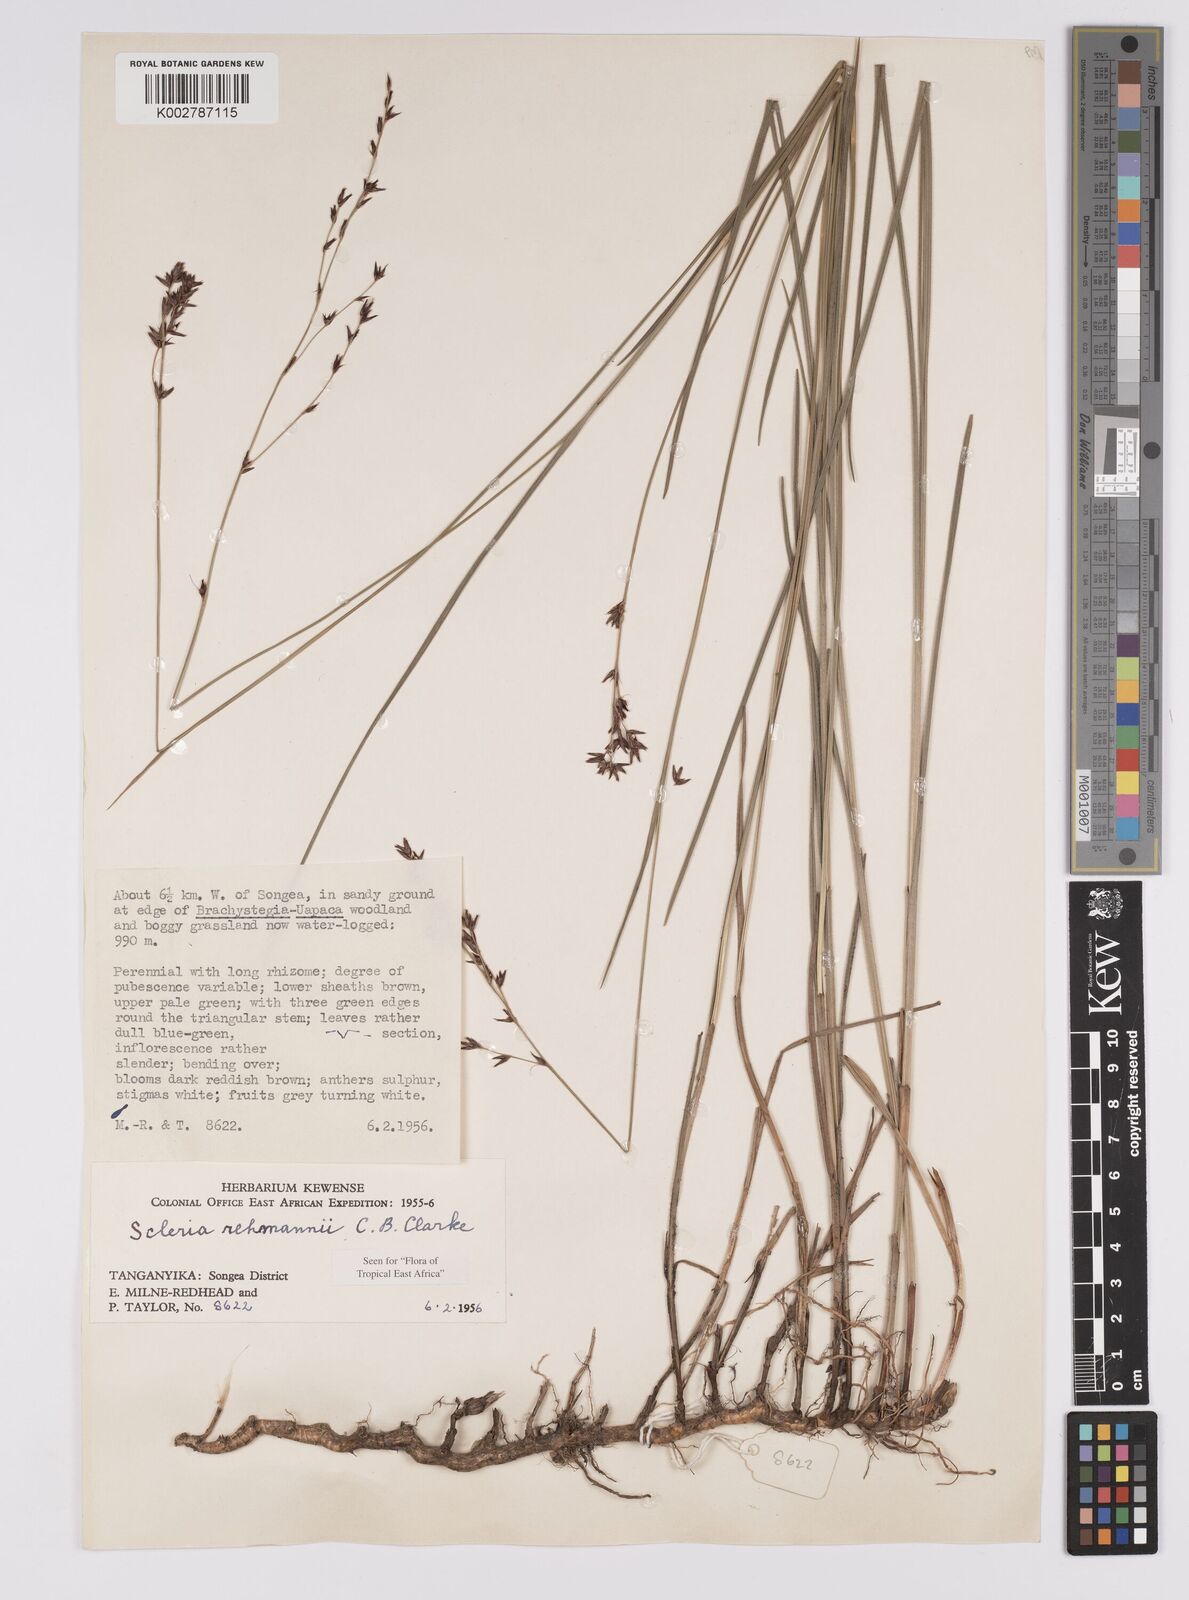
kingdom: Plantae
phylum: Tracheophyta
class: Liliopsida
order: Poales
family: Cyperaceae
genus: Scleria
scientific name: Scleria rehmannii
